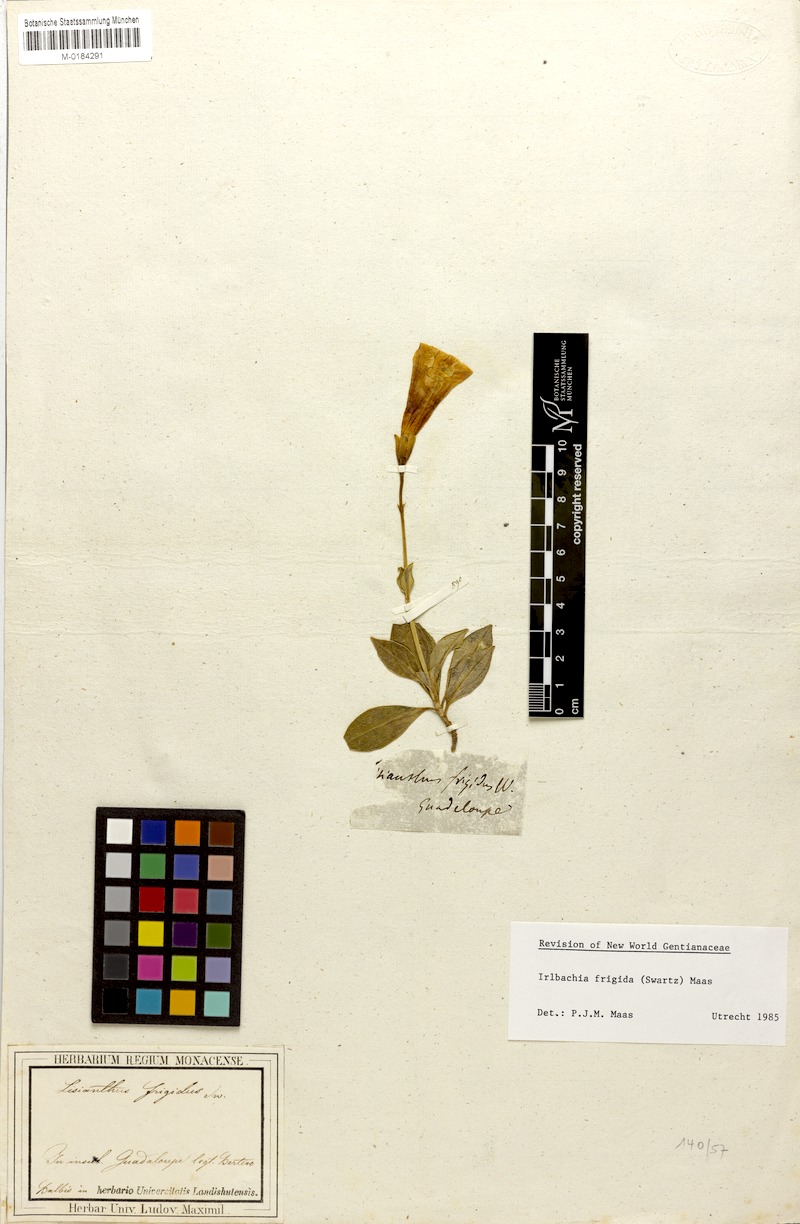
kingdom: Plantae
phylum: Tracheophyta
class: Magnoliopsida
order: Gentianales
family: Gentianaceae
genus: Symbolanthus
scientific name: Symbolanthus frigidus
